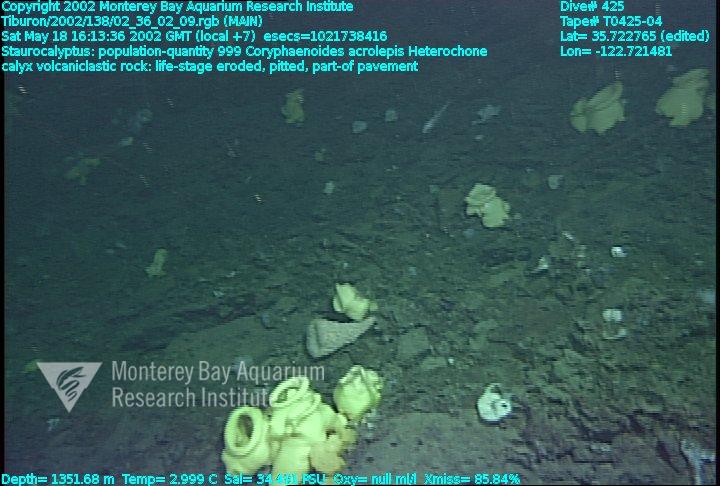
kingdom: Animalia
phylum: Porifera
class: Hexactinellida
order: Lyssacinosida
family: Rossellidae
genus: Staurocalyptus
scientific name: Staurocalyptus
